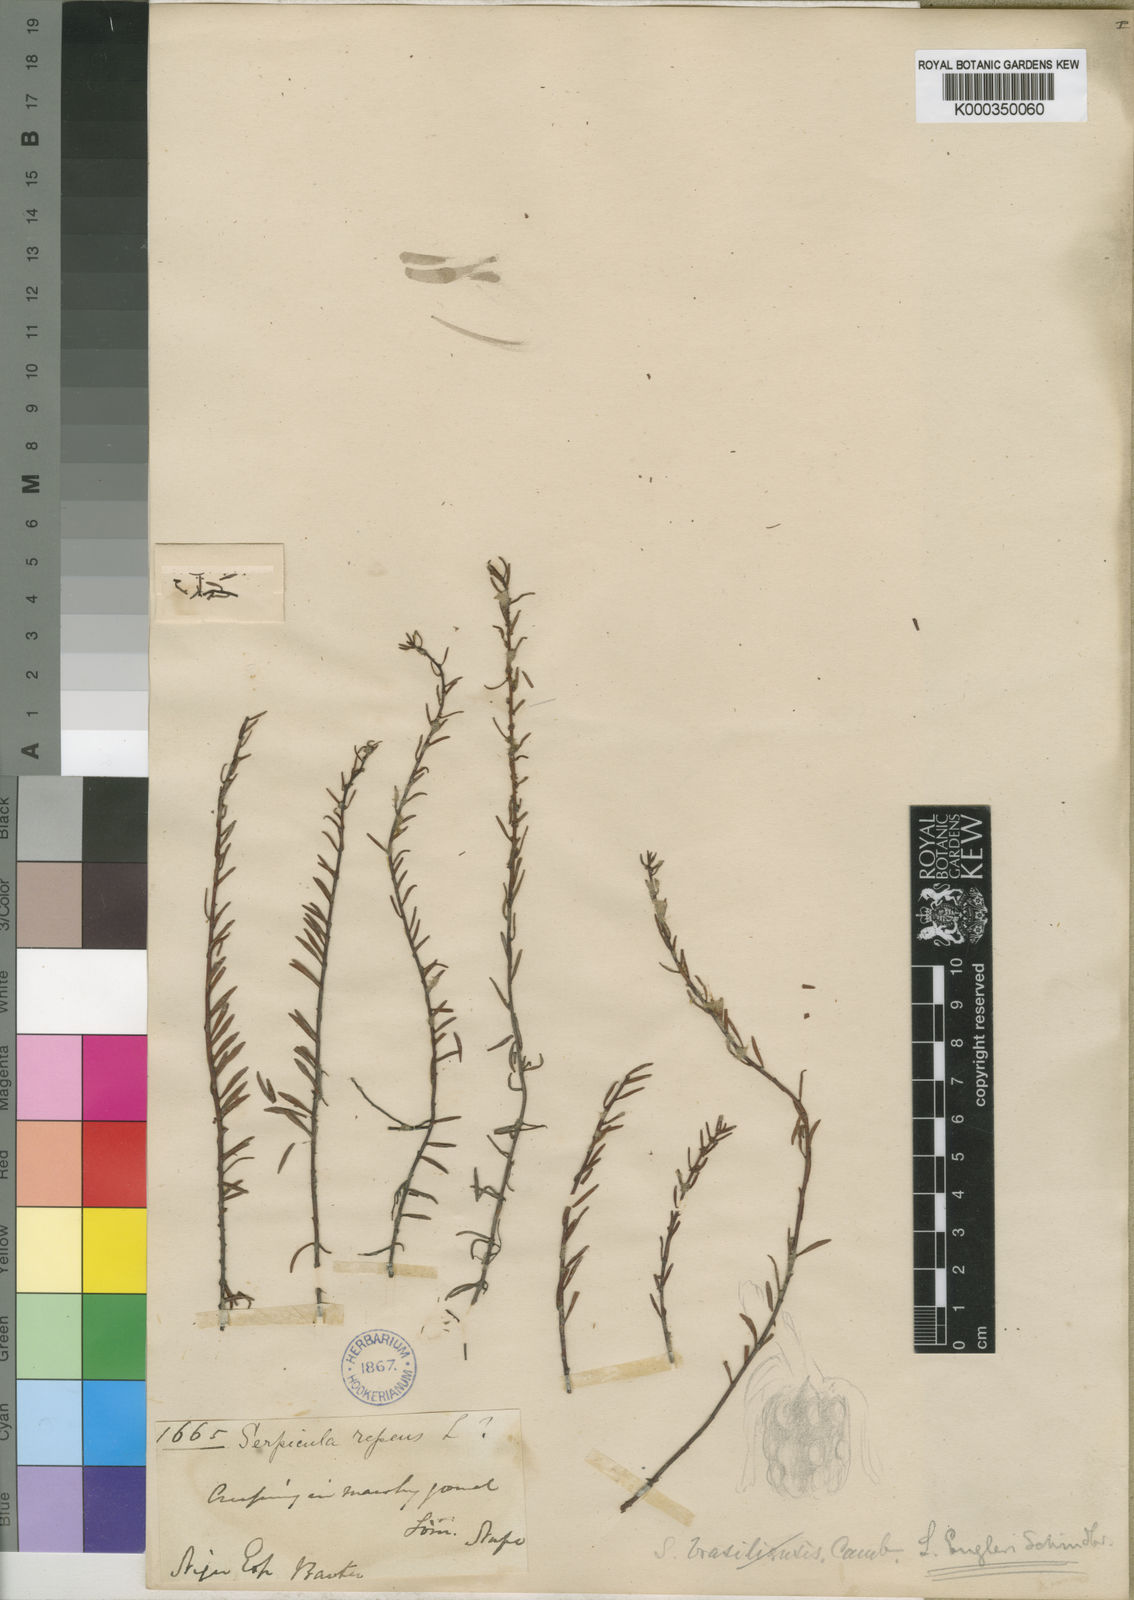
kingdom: Plantae
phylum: Tracheophyta
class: Magnoliopsida
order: Saxifragales
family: Haloragaceae
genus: Laurembergia
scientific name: Laurembergia repens
